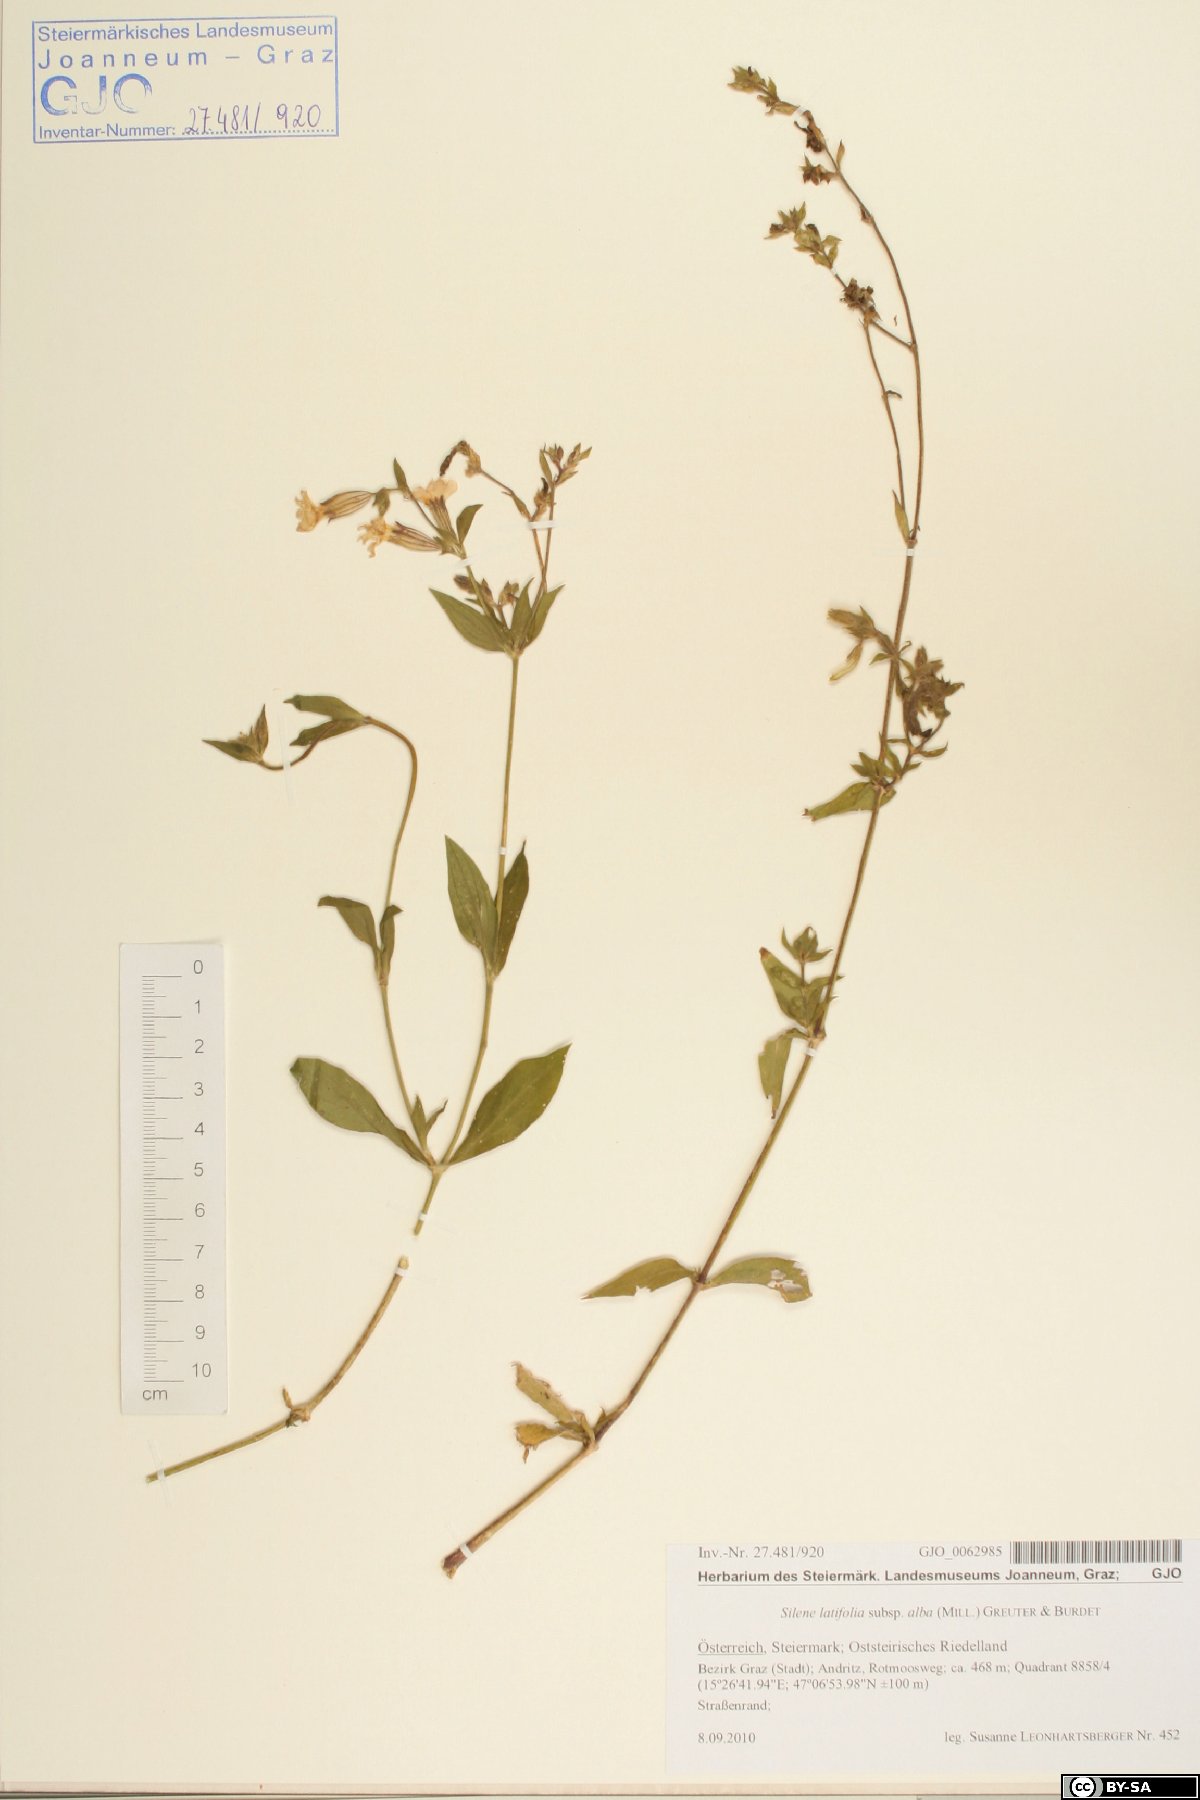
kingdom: Plantae
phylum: Tracheophyta
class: Magnoliopsida
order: Caryophyllales
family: Caryophyllaceae
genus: Silene
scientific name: Silene latifolia
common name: White campion
